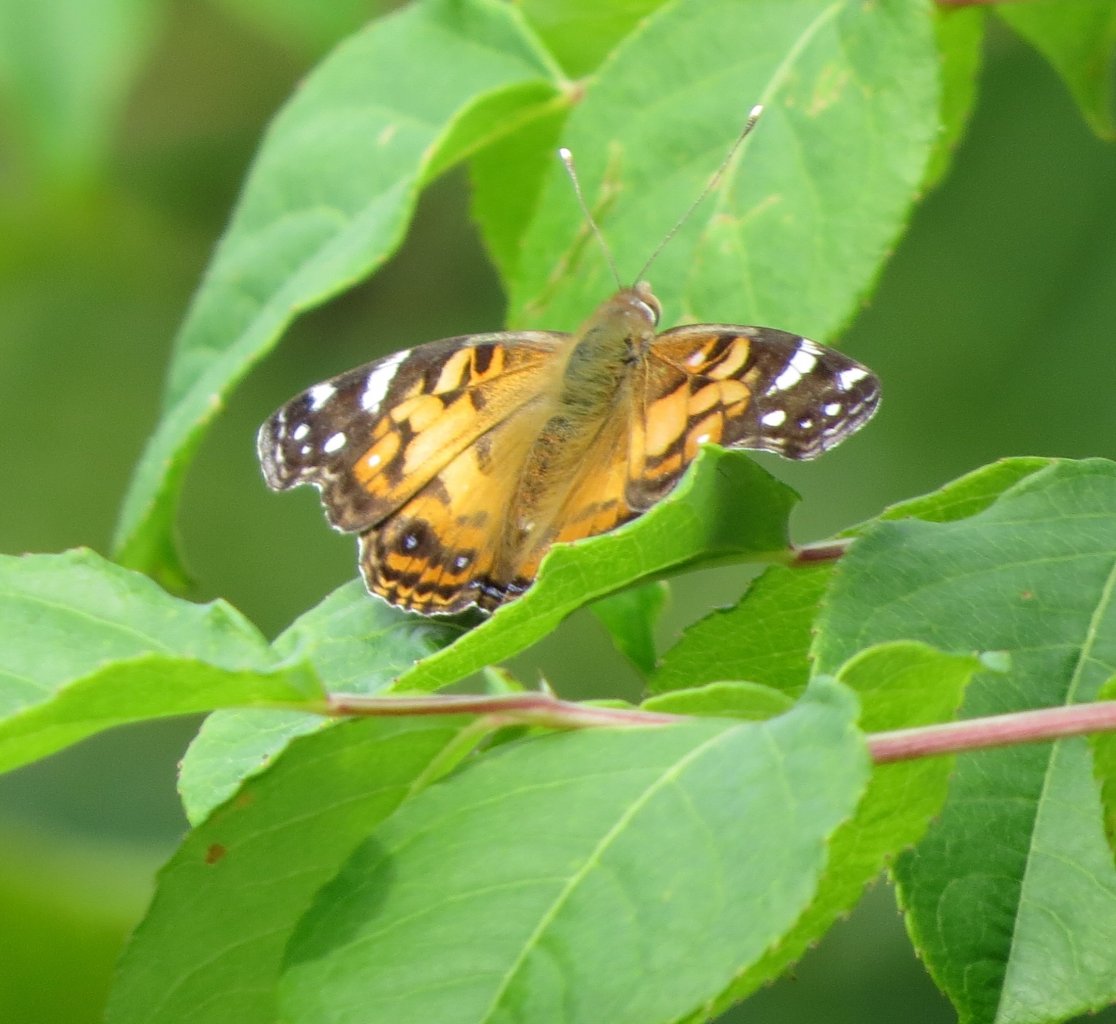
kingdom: Animalia
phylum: Arthropoda
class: Insecta
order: Lepidoptera
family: Nymphalidae
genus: Vanessa
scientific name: Vanessa virginiensis
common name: American Lady
